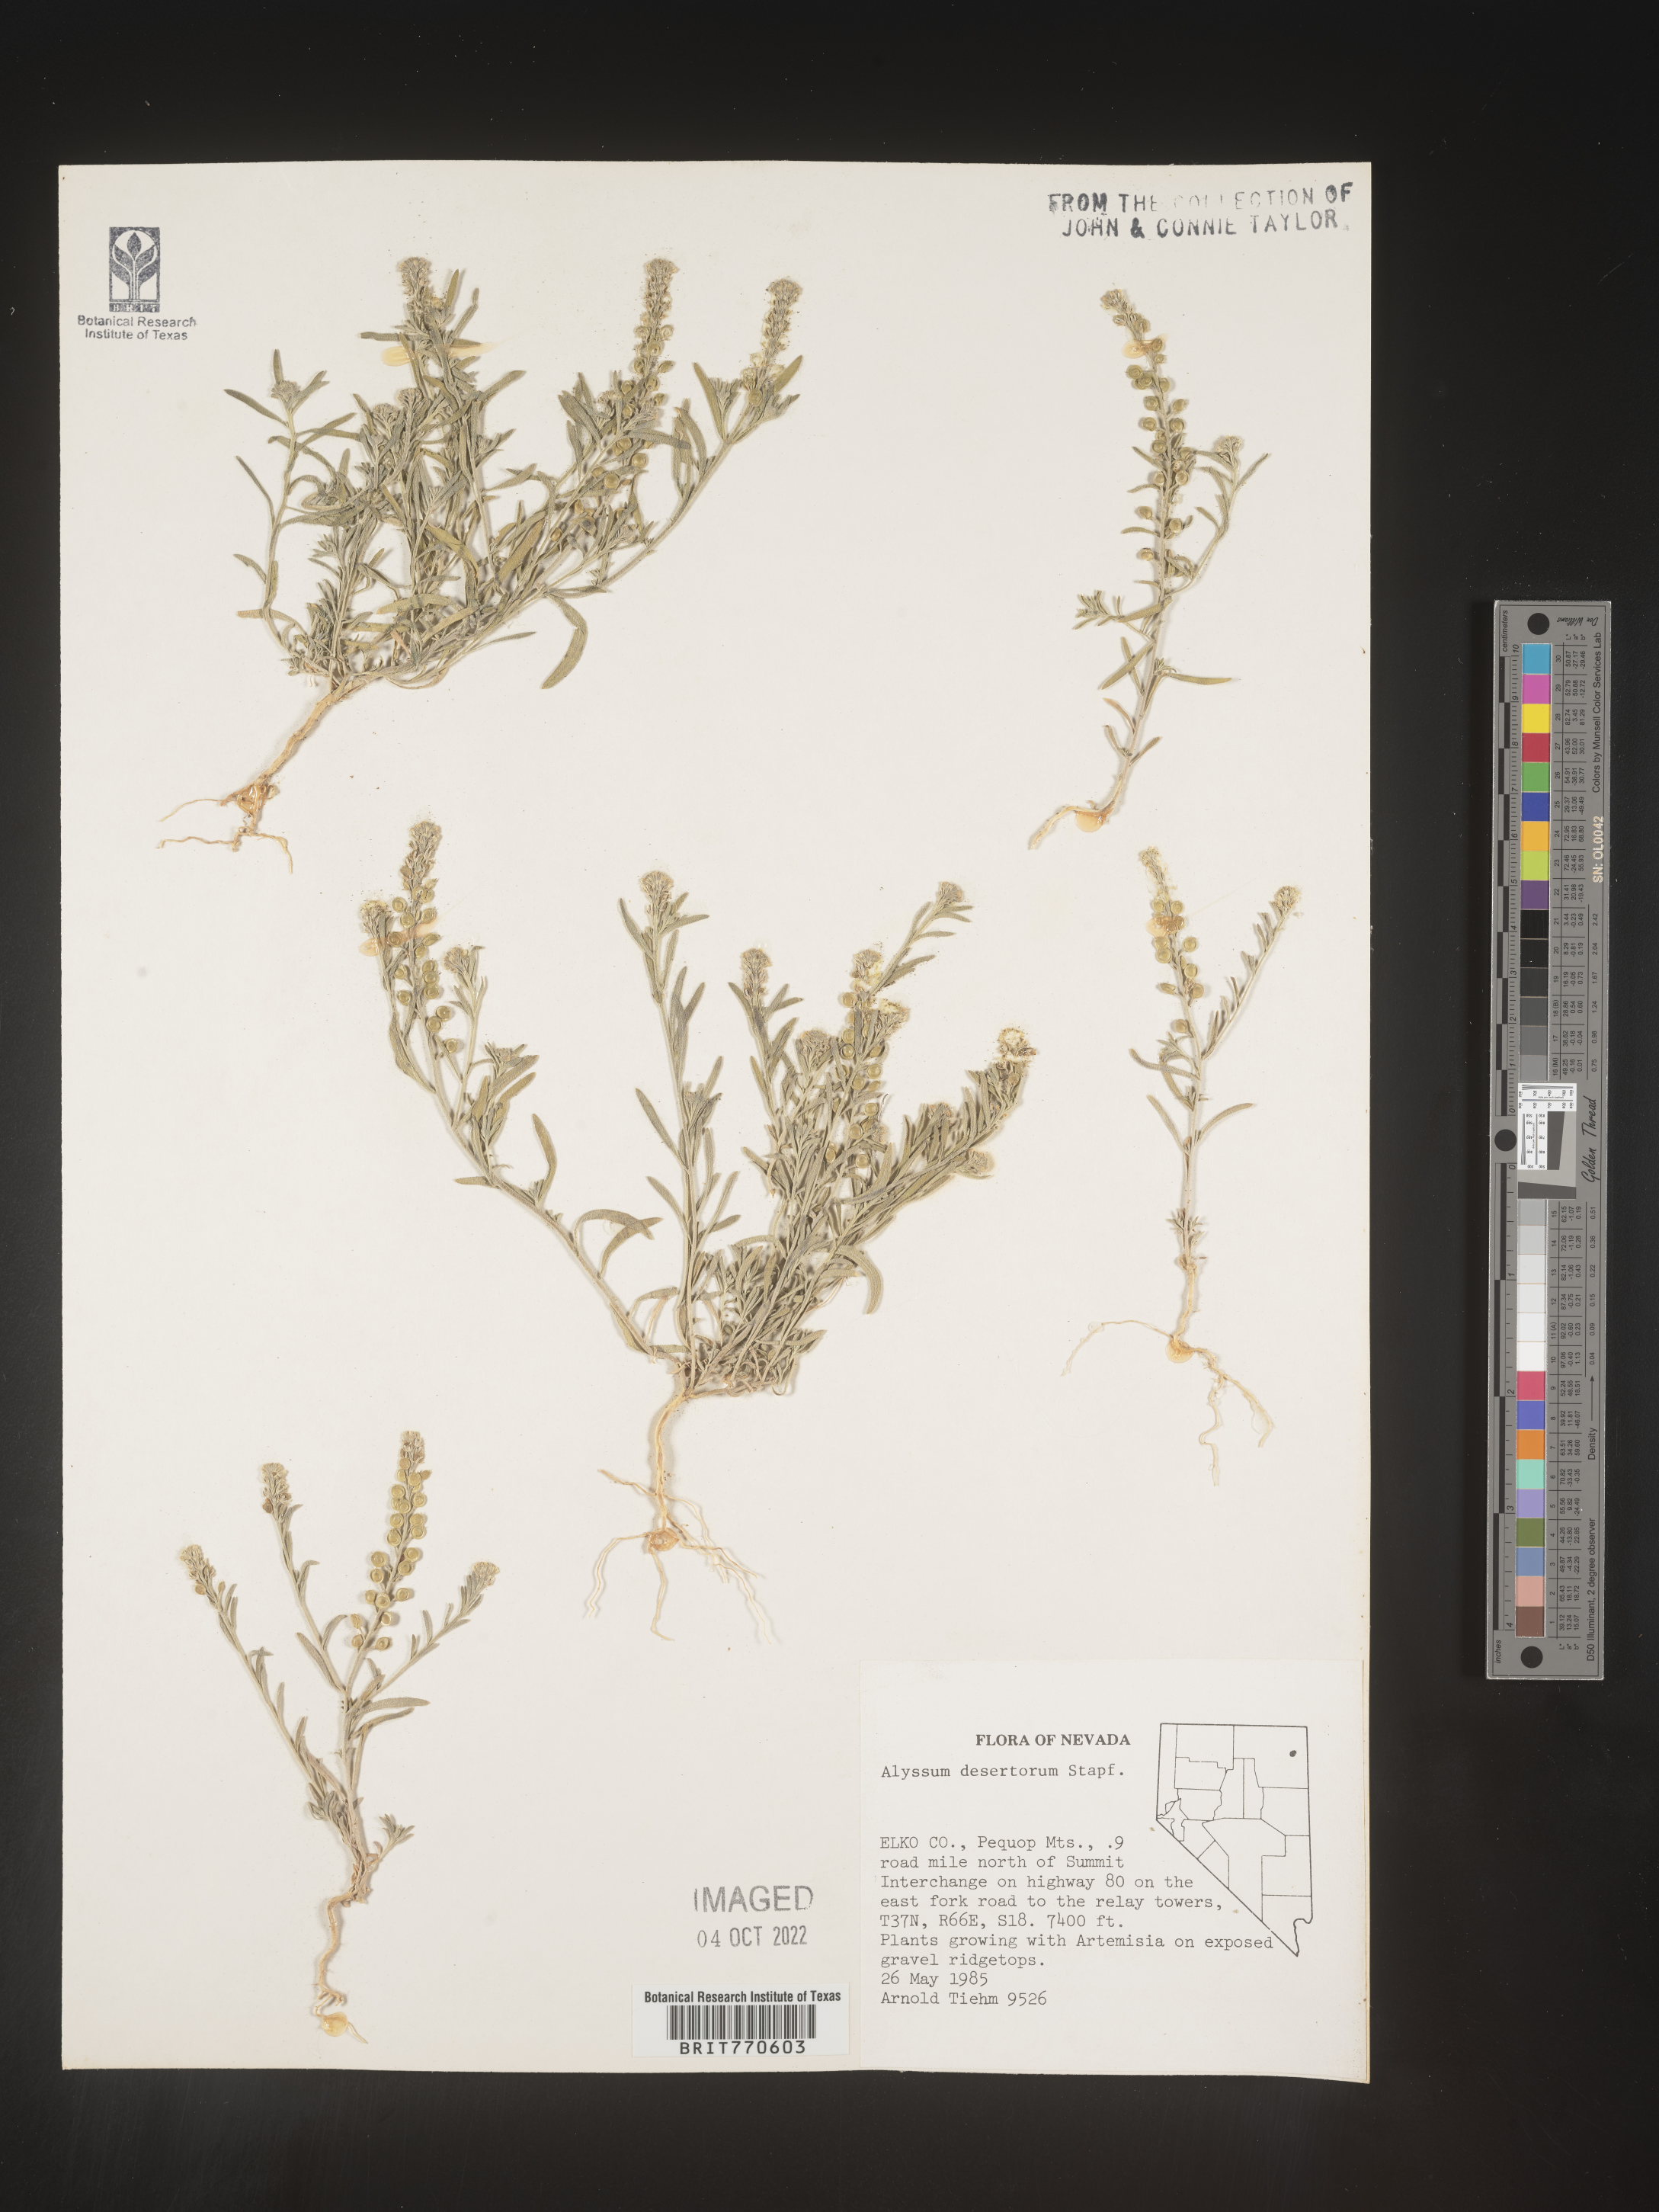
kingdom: Plantae
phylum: Tracheophyta
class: Magnoliopsida
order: Brassicales
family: Brassicaceae
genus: Alyssum
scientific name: Alyssum turkestanicum
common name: Desert alyssum
